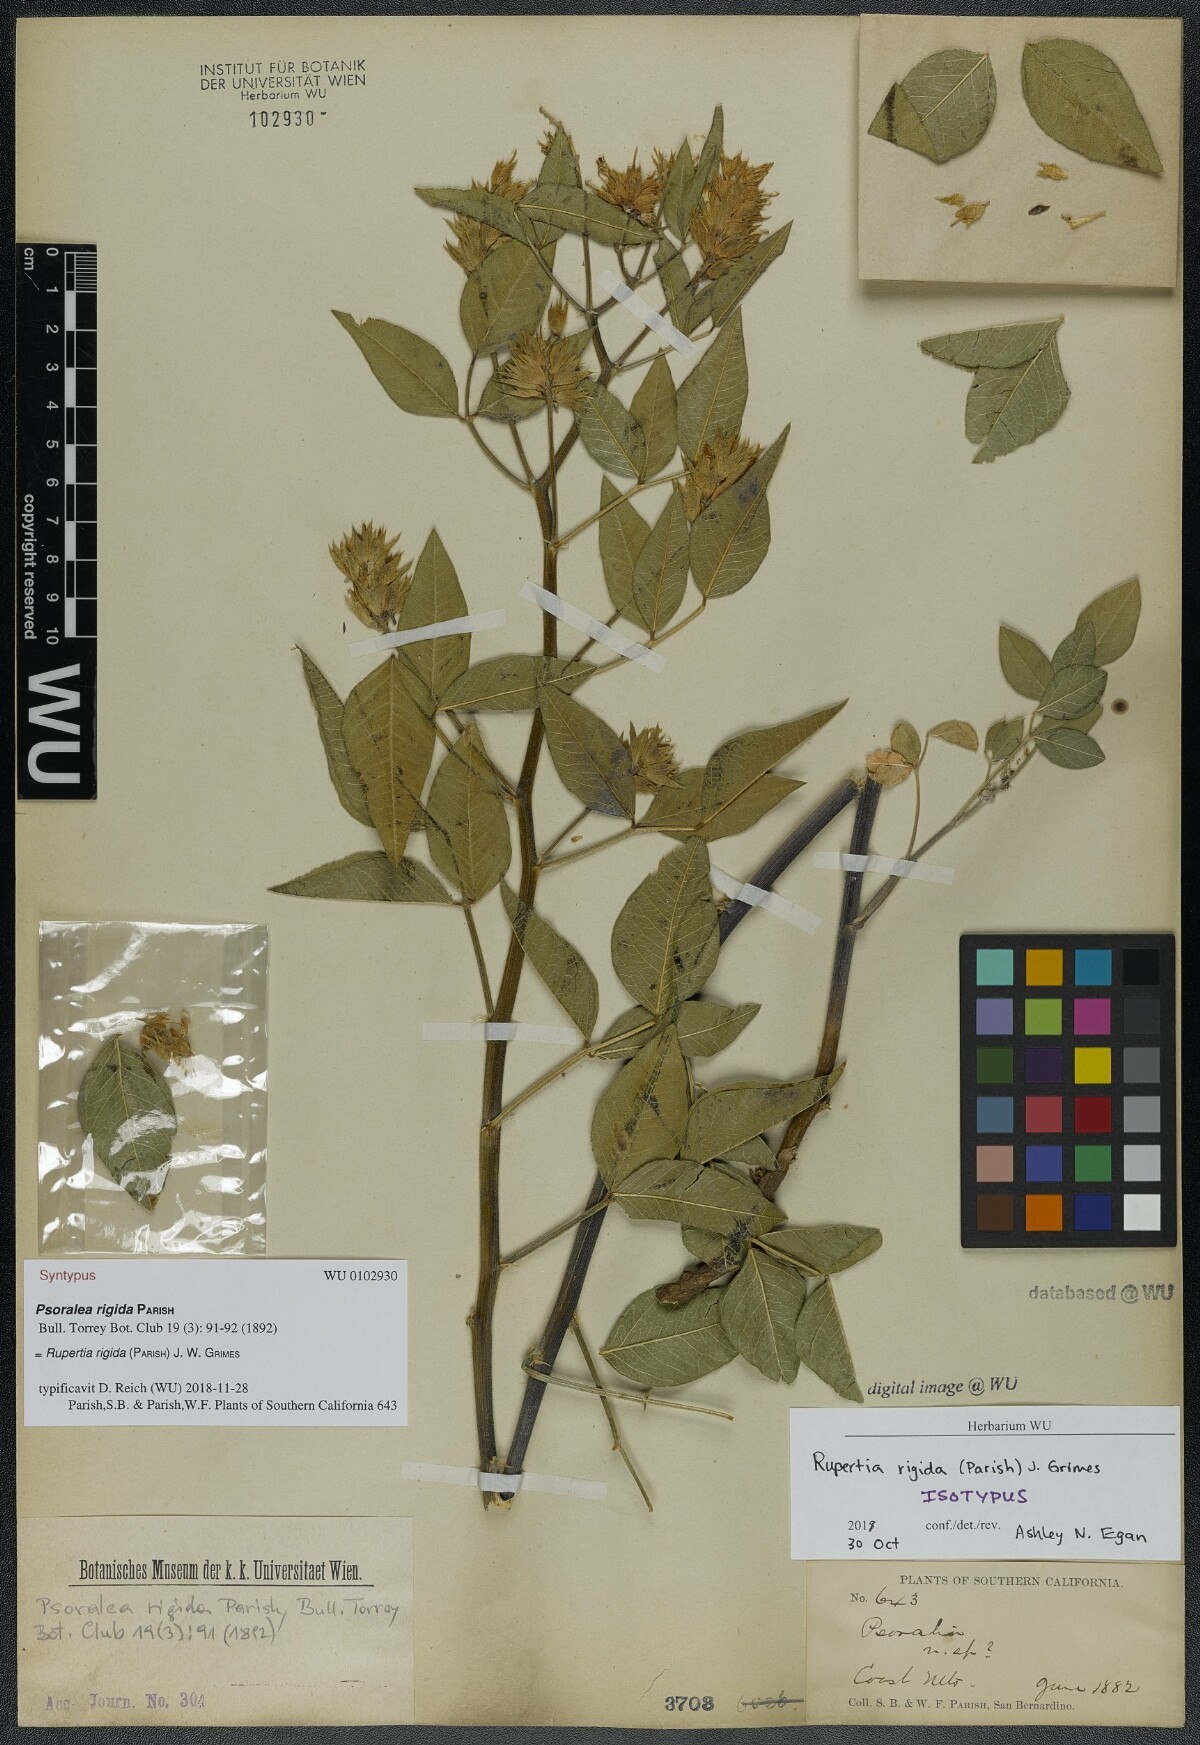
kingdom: Plantae
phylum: Tracheophyta
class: Magnoliopsida
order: Fabales
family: Fabaceae
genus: Rupertia
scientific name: Rupertia rigida
